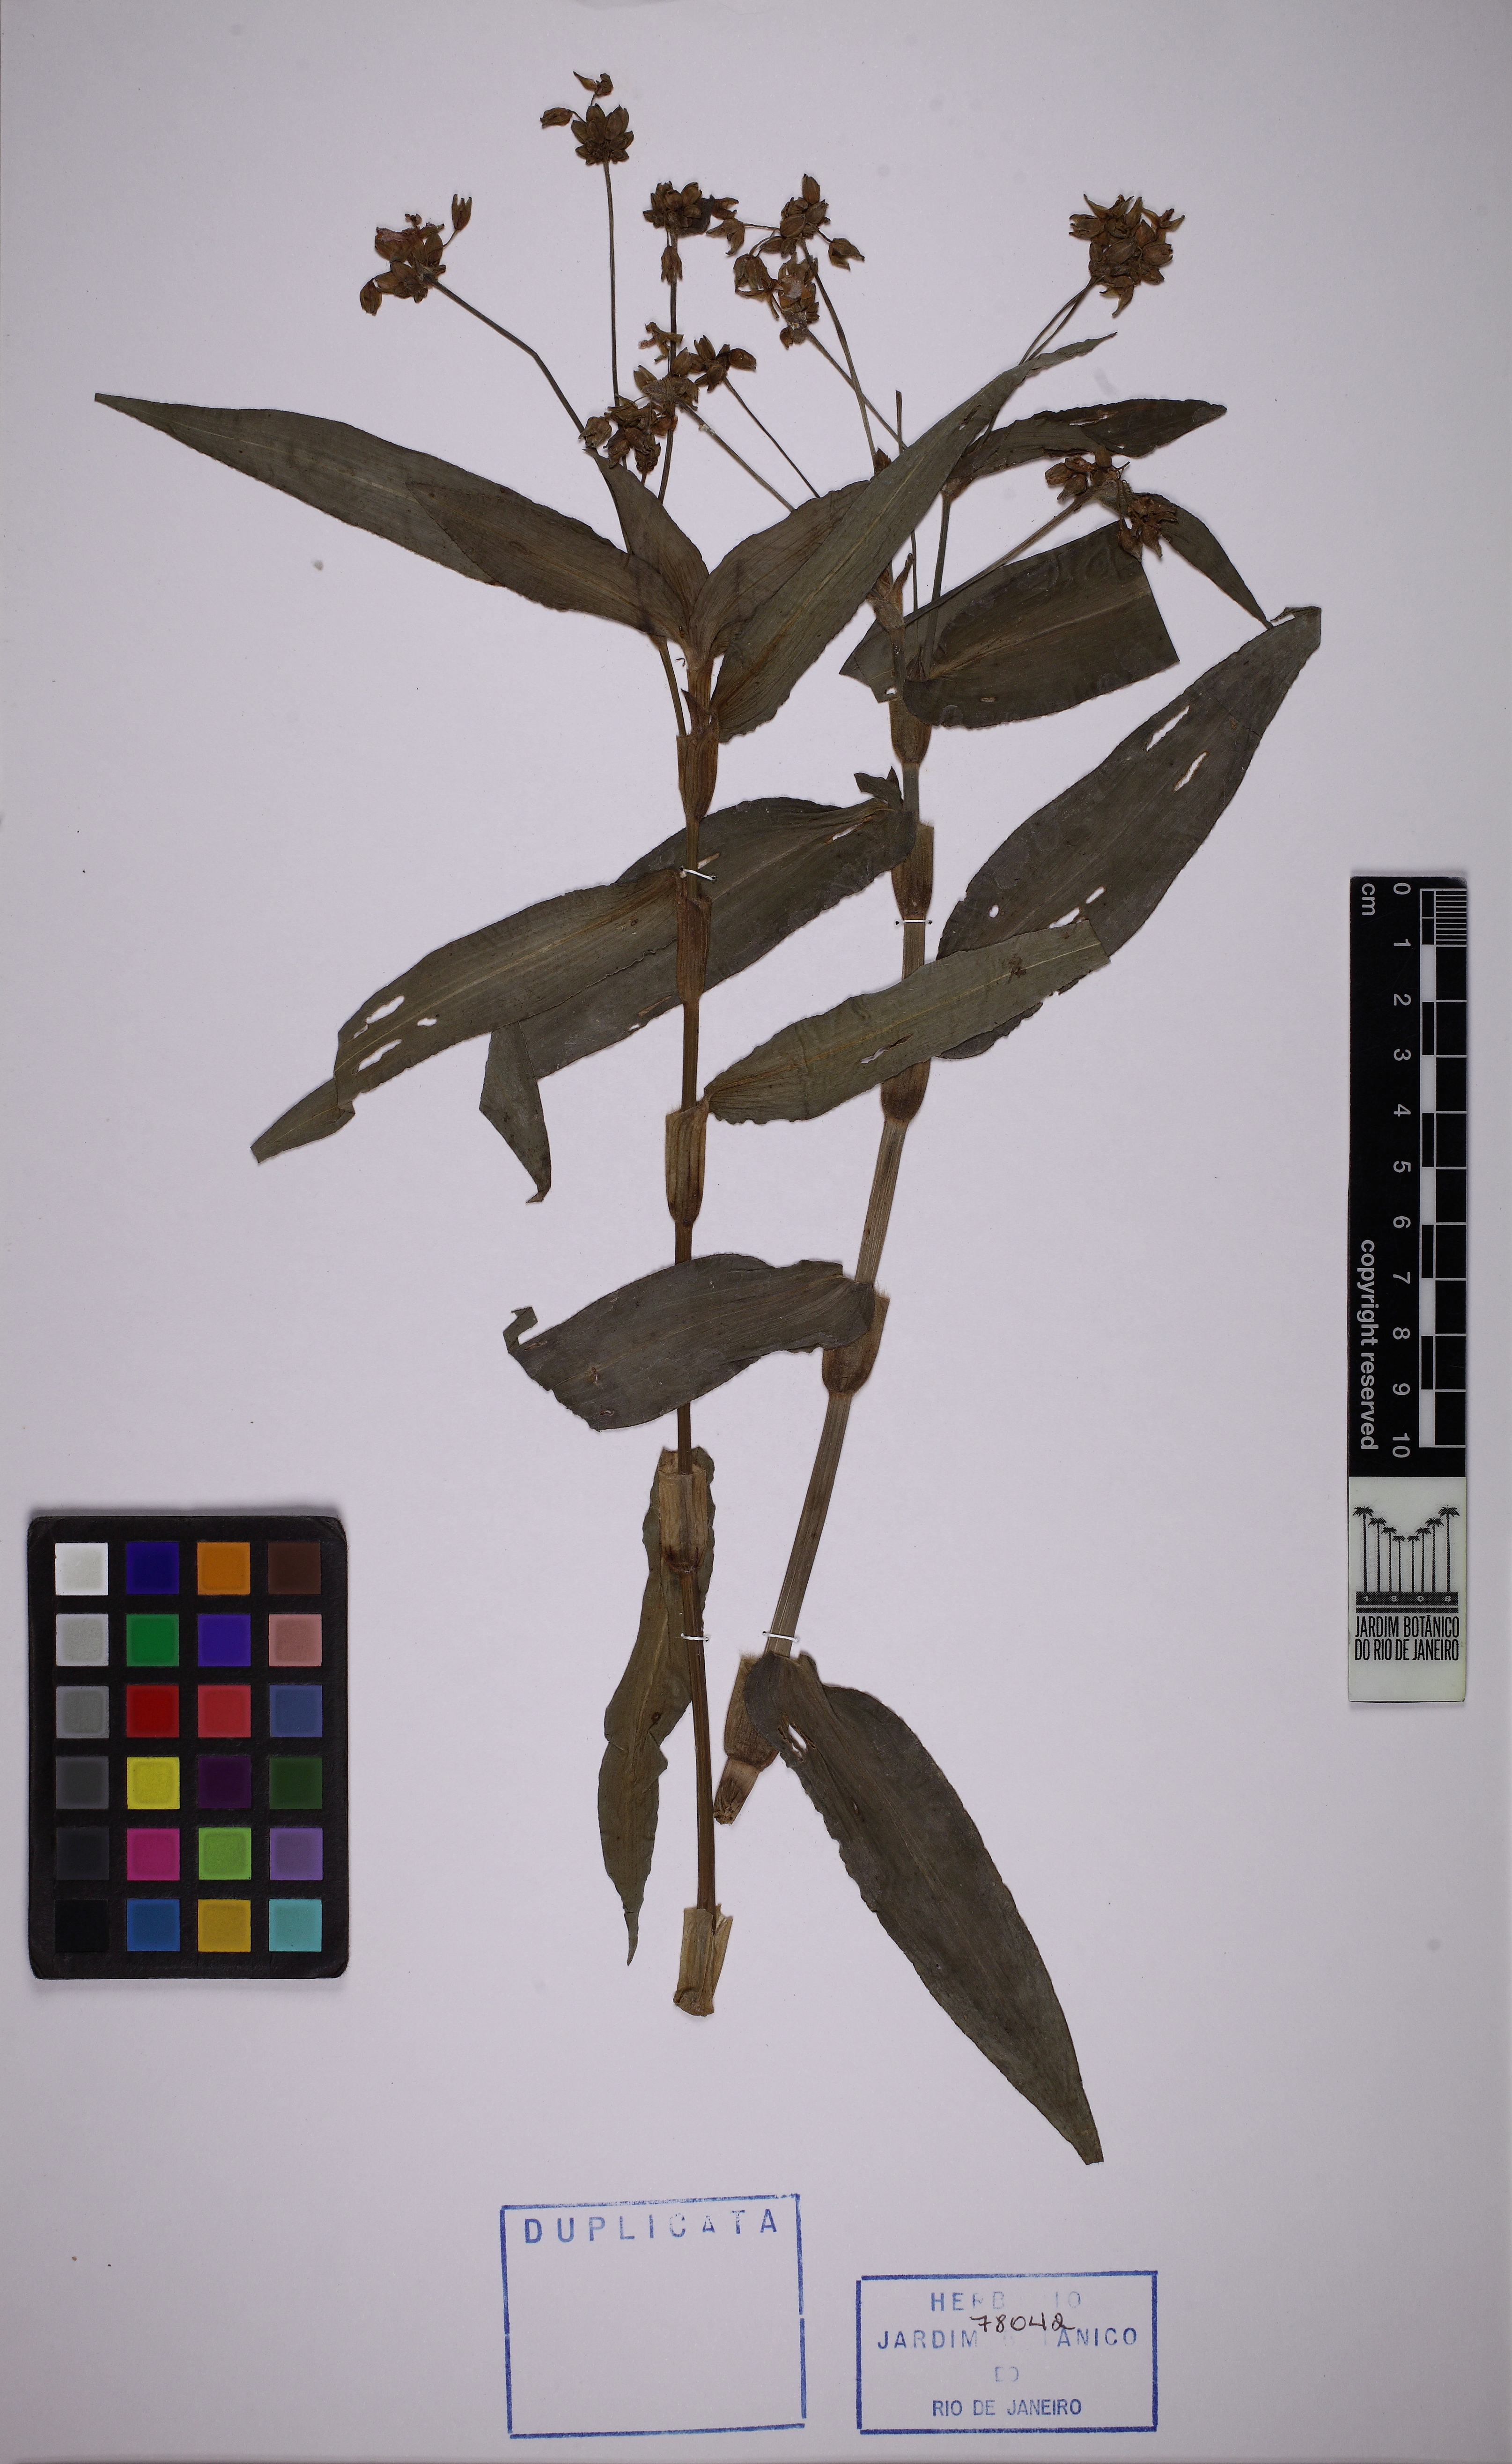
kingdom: Plantae
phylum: Tracheophyta
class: Liliopsida
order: Commelinales
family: Commelinaceae
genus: Callisia
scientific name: Callisia diuretica
